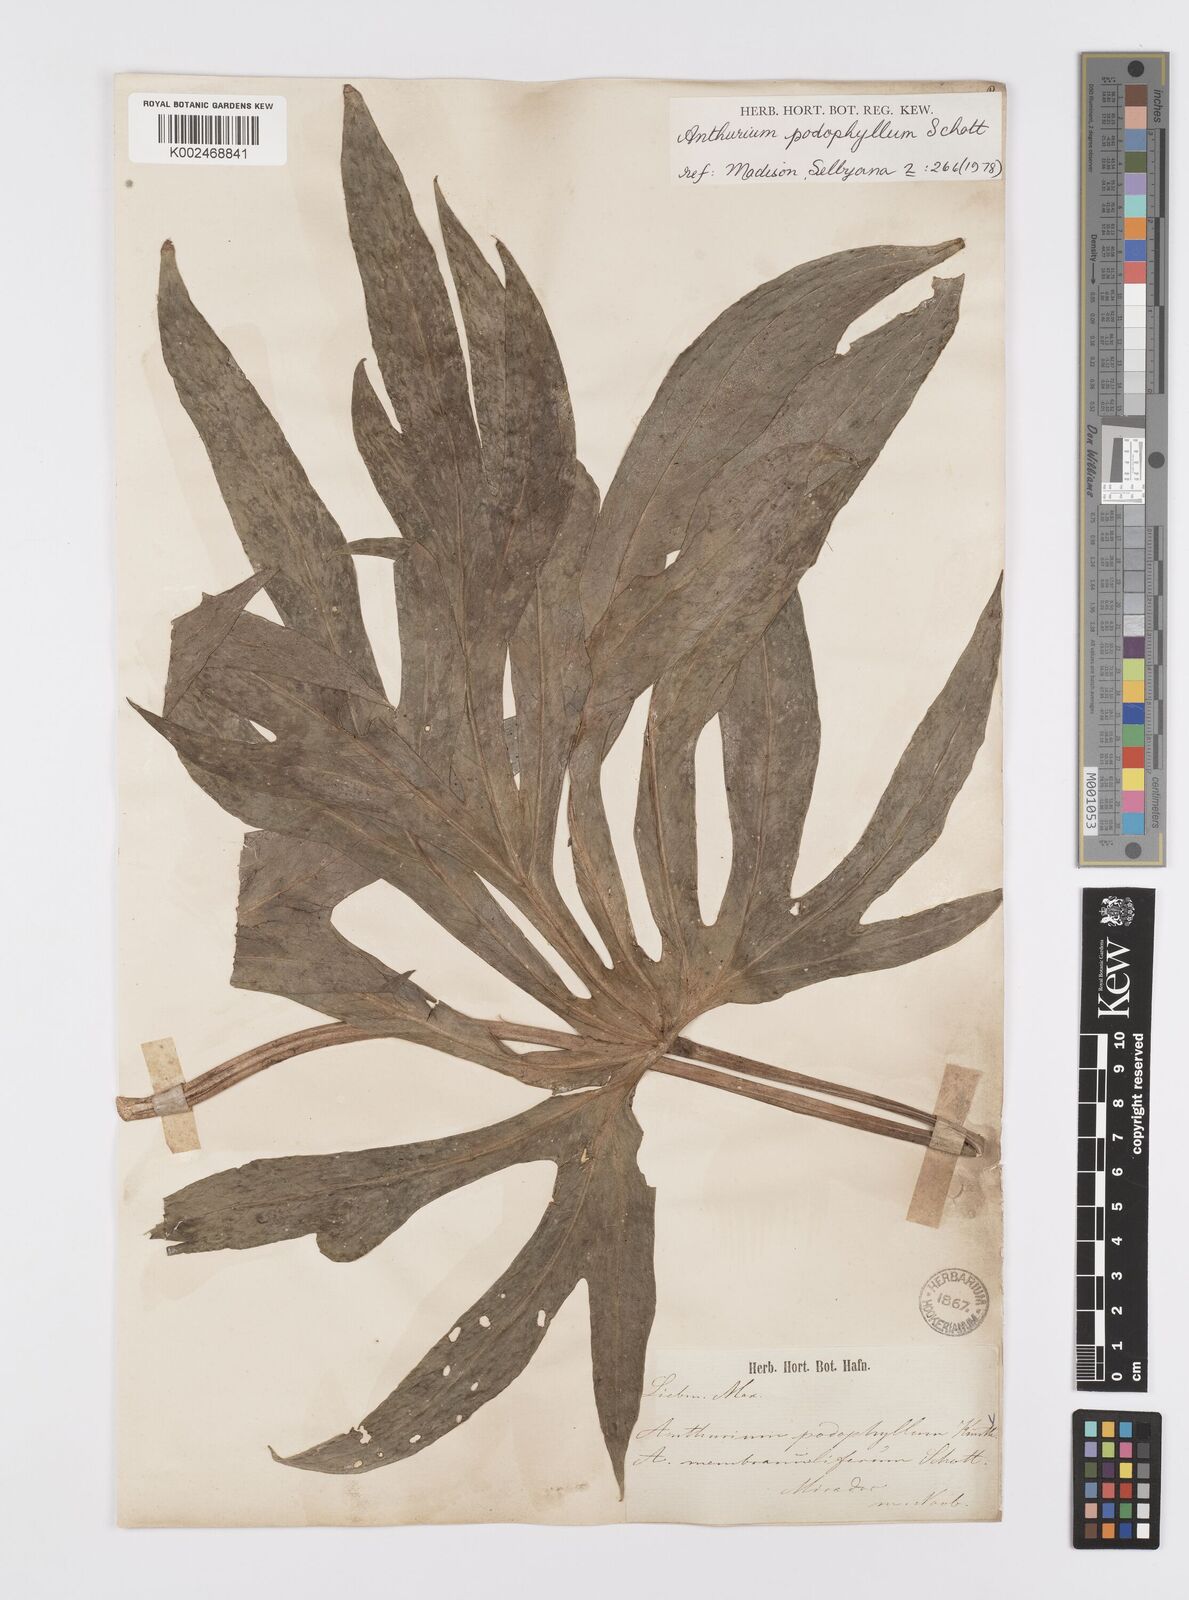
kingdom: Plantae
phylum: Tracheophyta
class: Liliopsida
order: Alismatales
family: Araceae
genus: Anthurium
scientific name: Anthurium podophyllum
